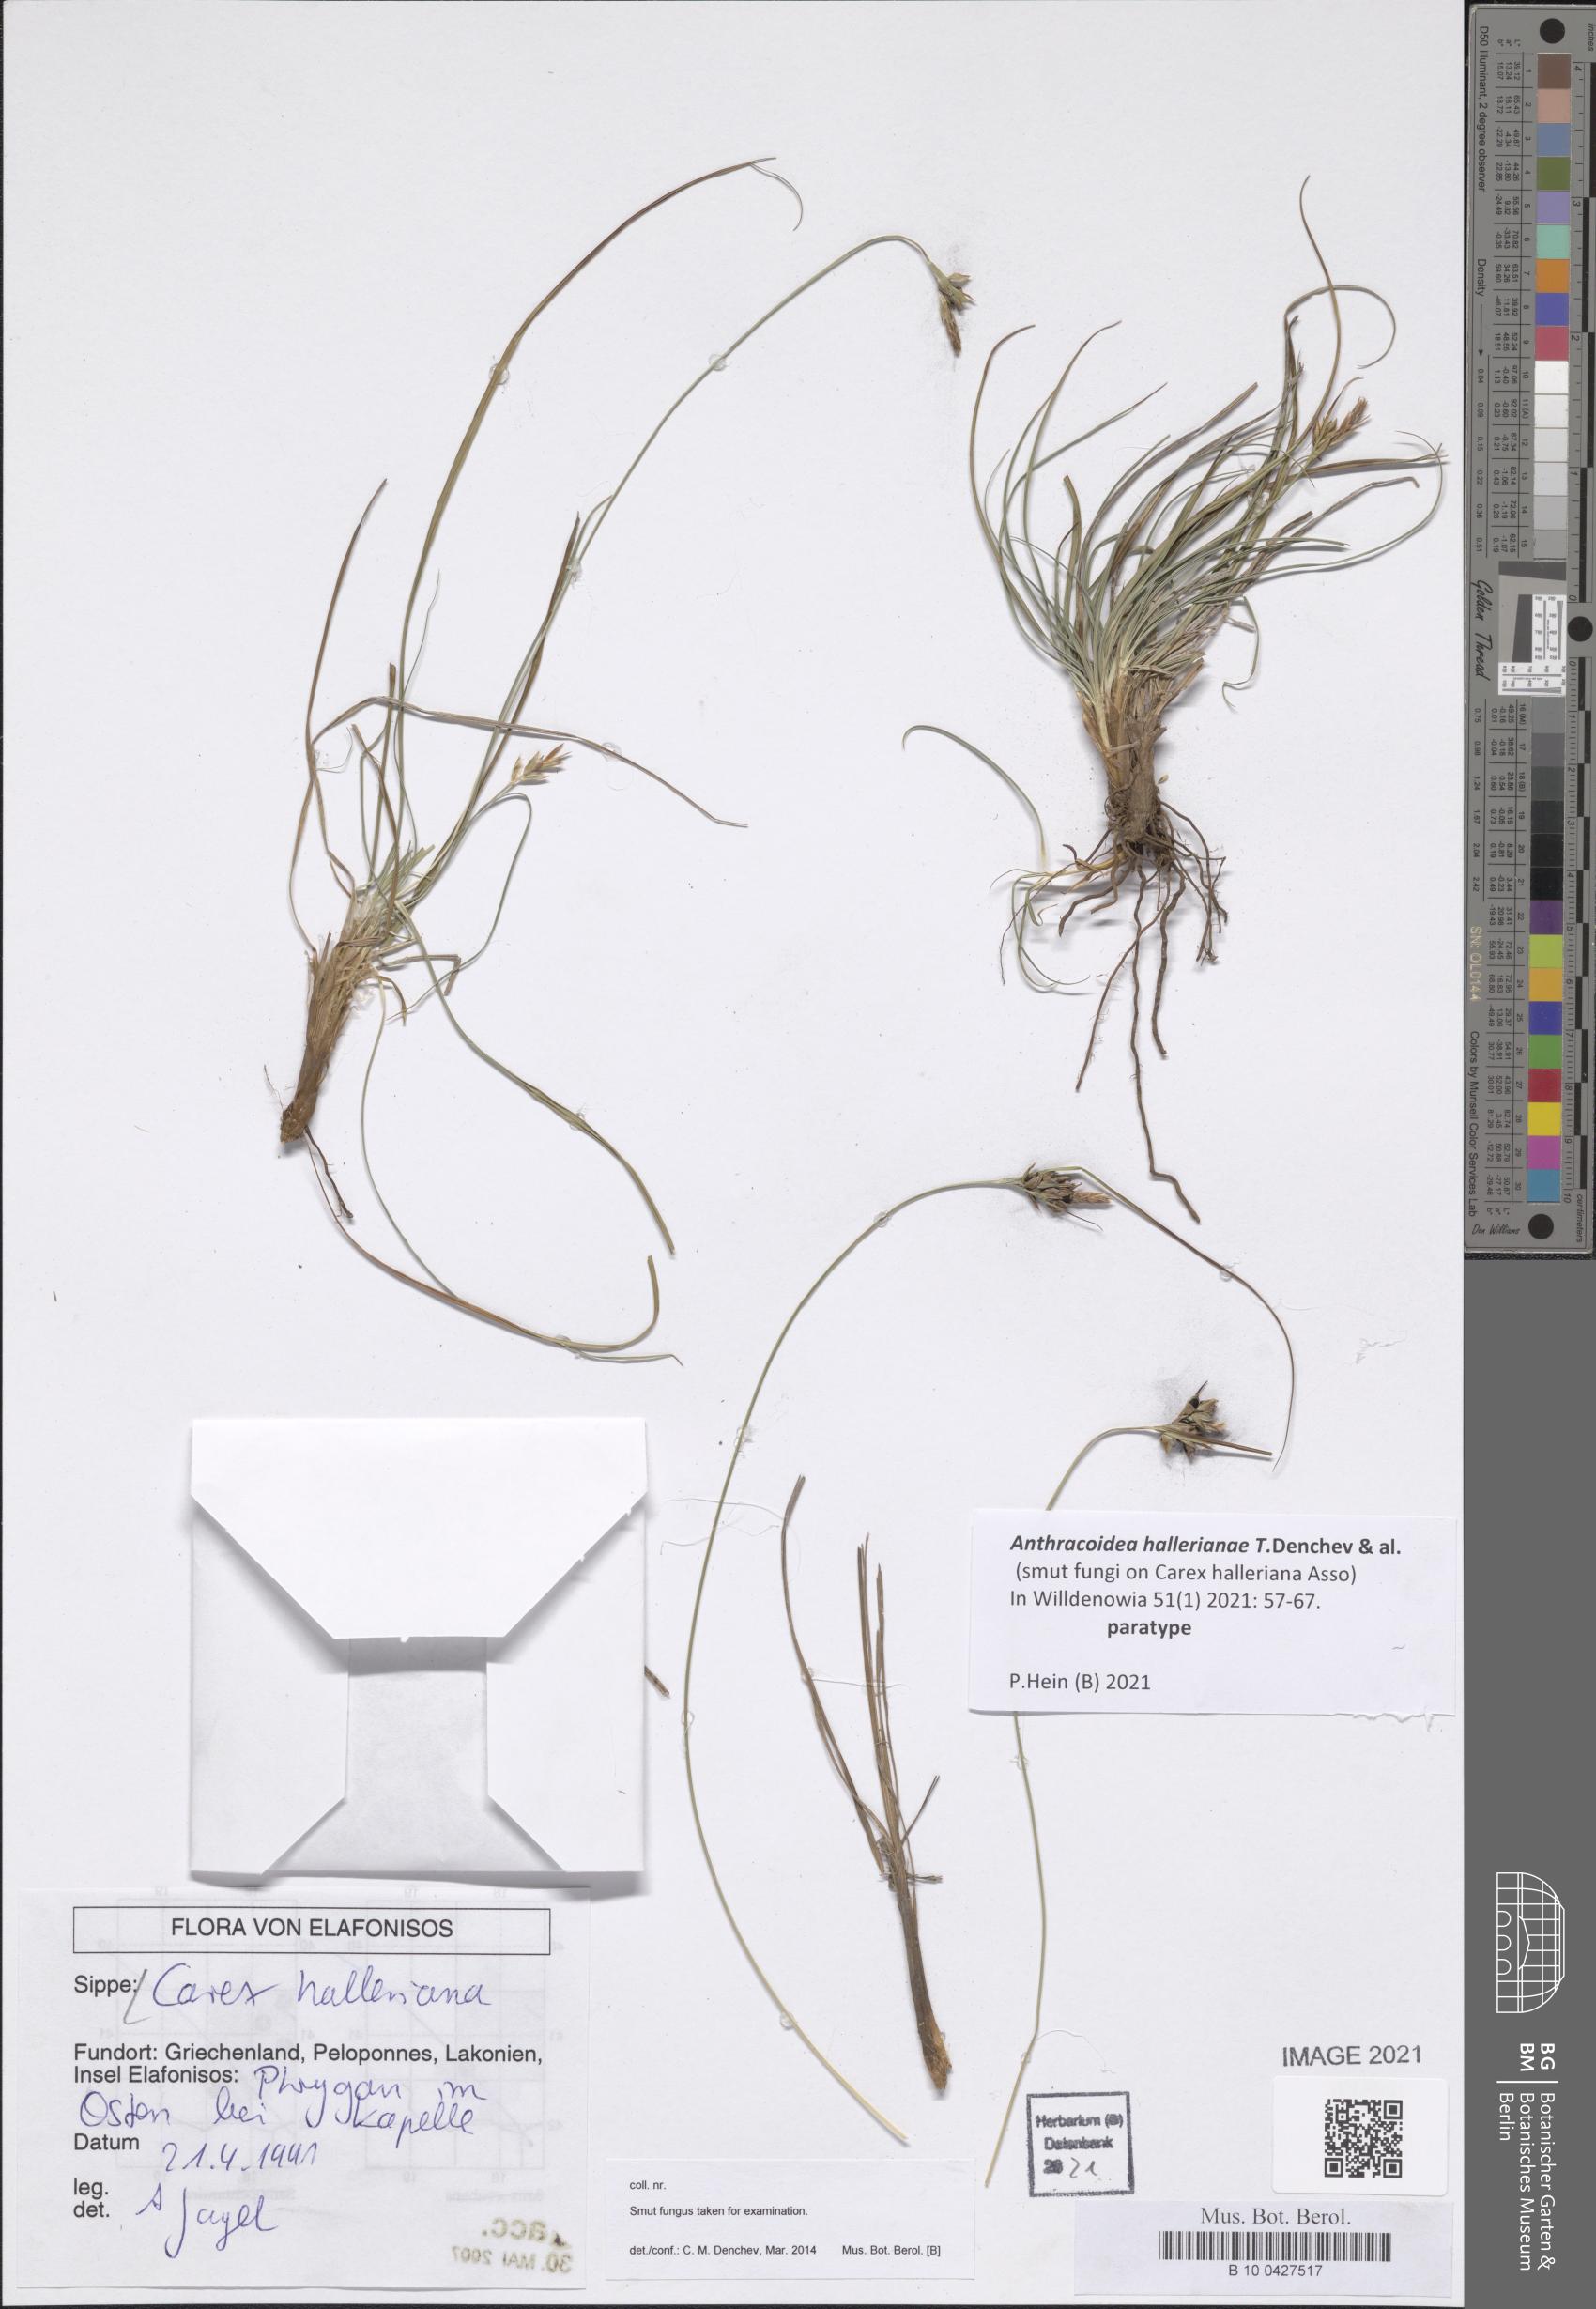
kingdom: Plantae
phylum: Tracheophyta
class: Liliopsida
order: Poales
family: Cyperaceae
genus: Carex
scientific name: Carex halleriana
